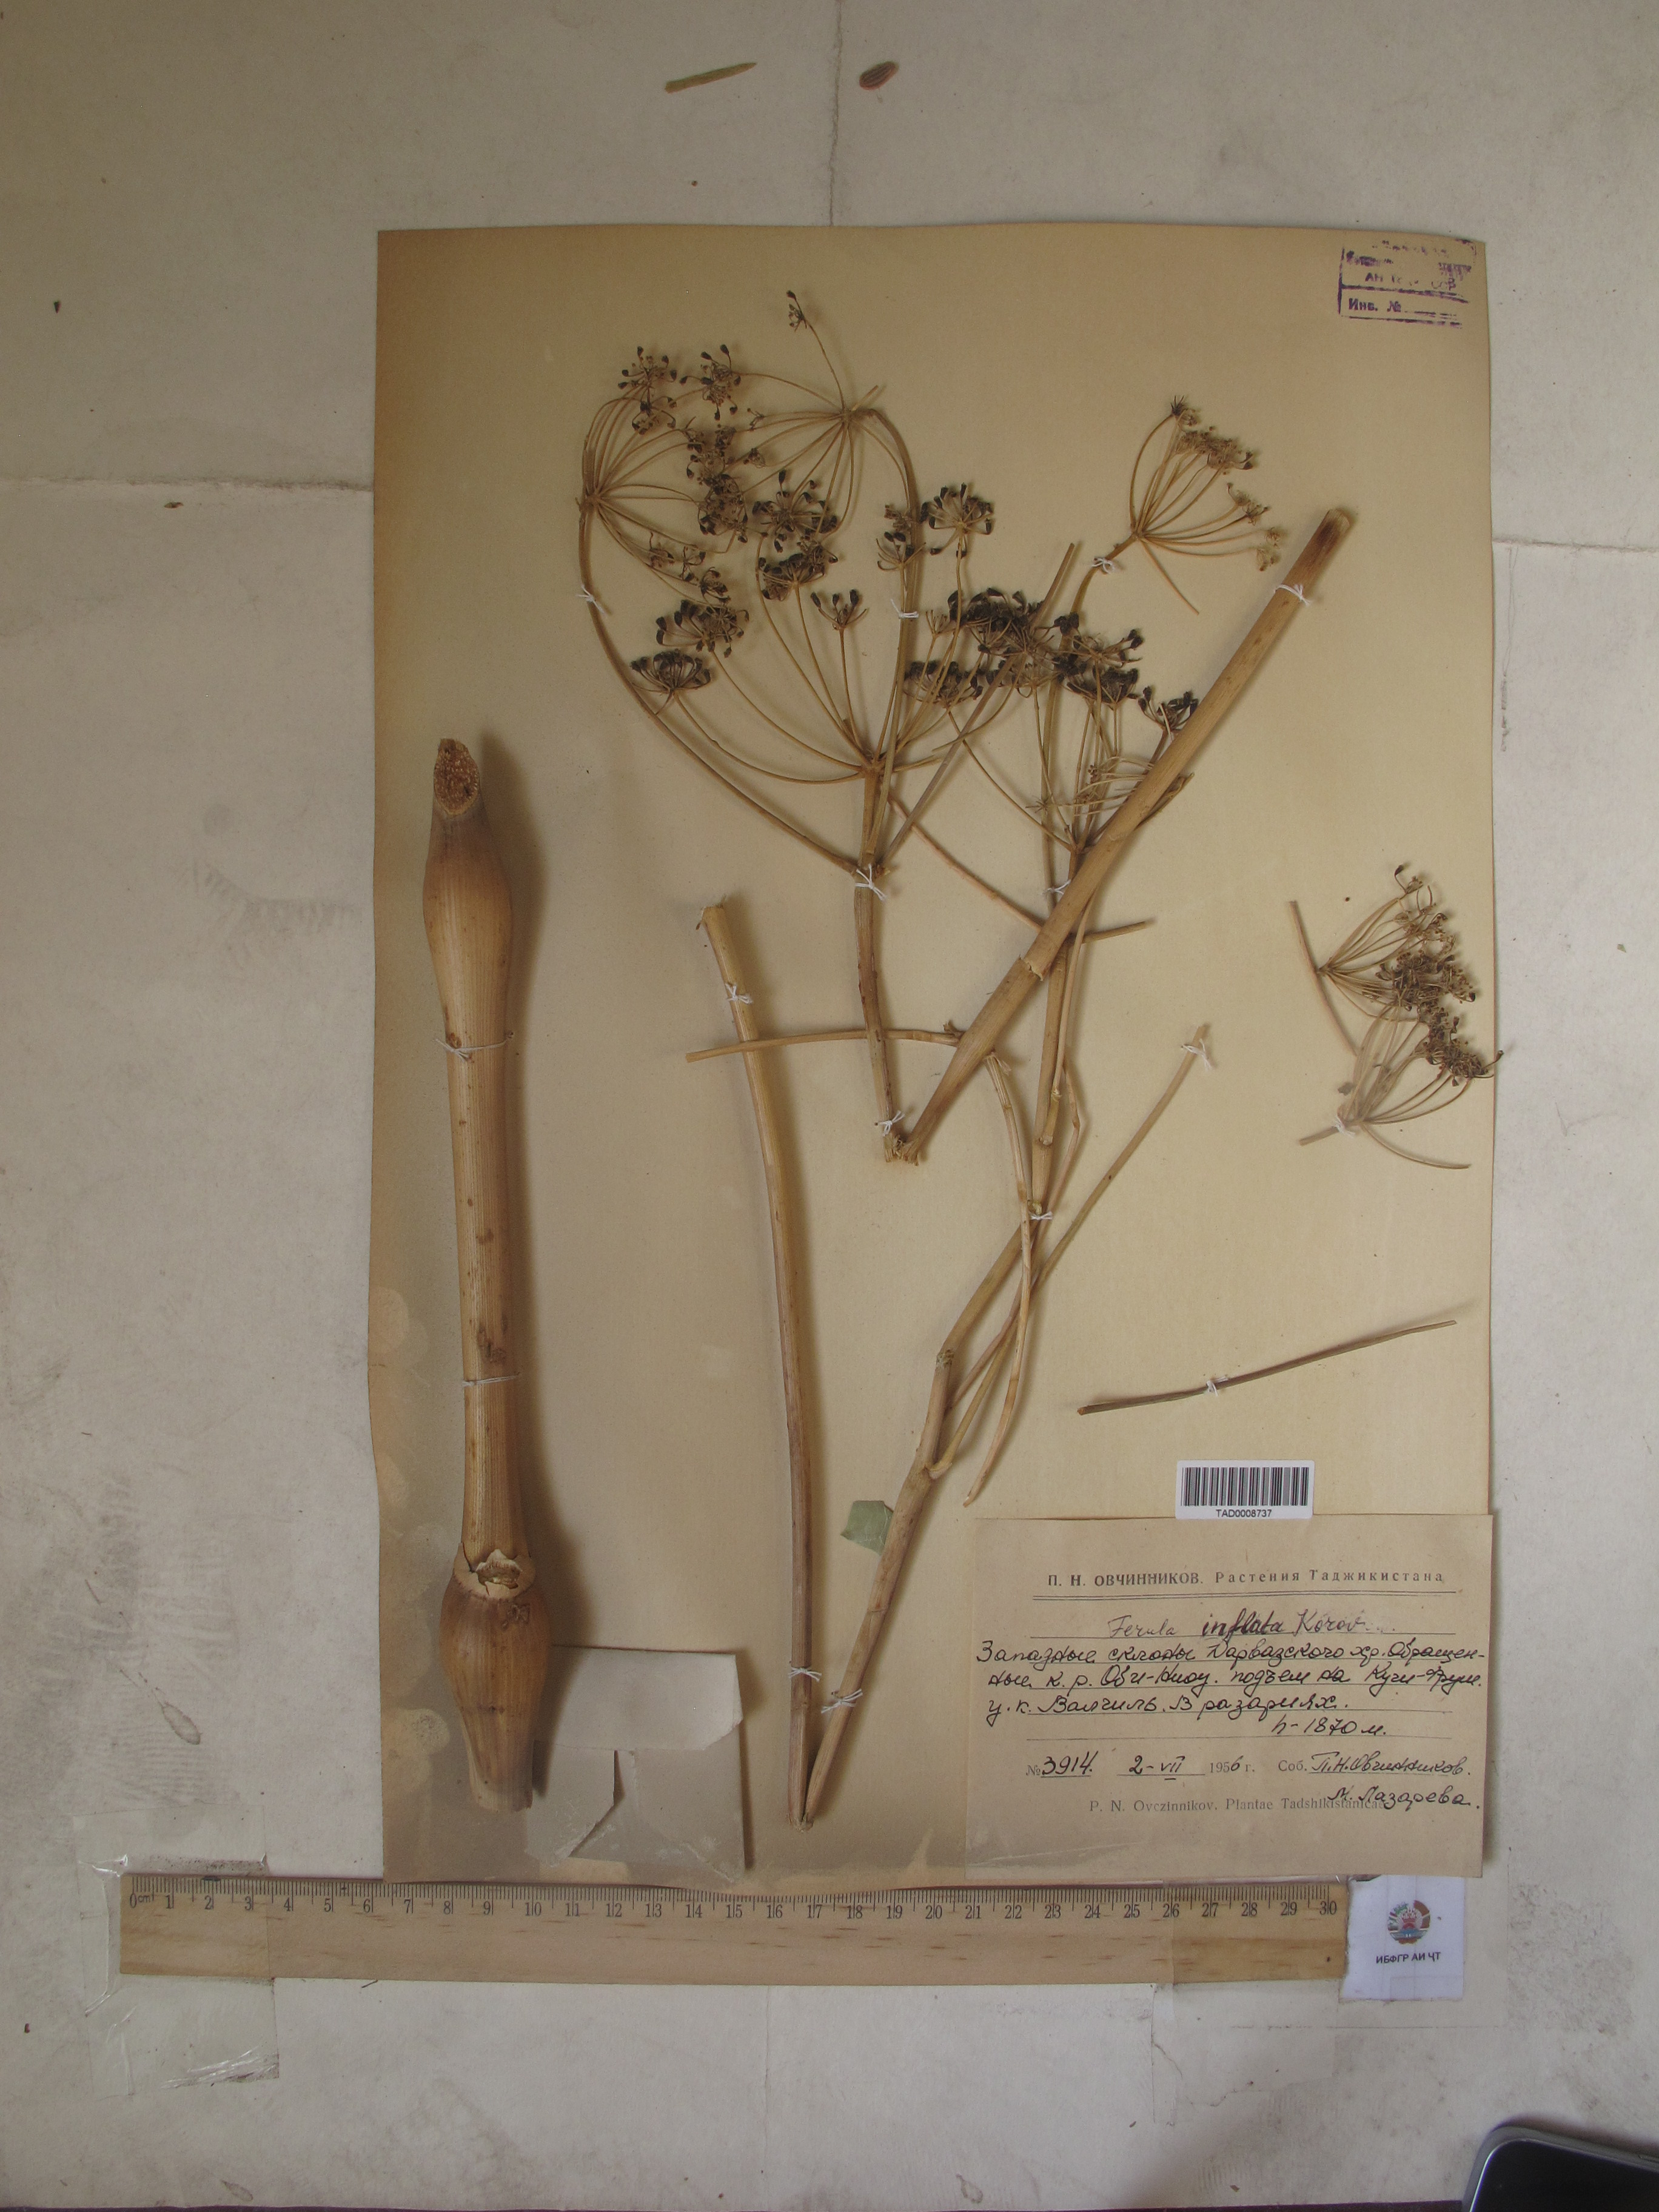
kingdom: Plantae
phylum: Tracheophyta
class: Magnoliopsida
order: Apiales
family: Apiaceae
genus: Ferula
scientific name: Ferula gigantea
